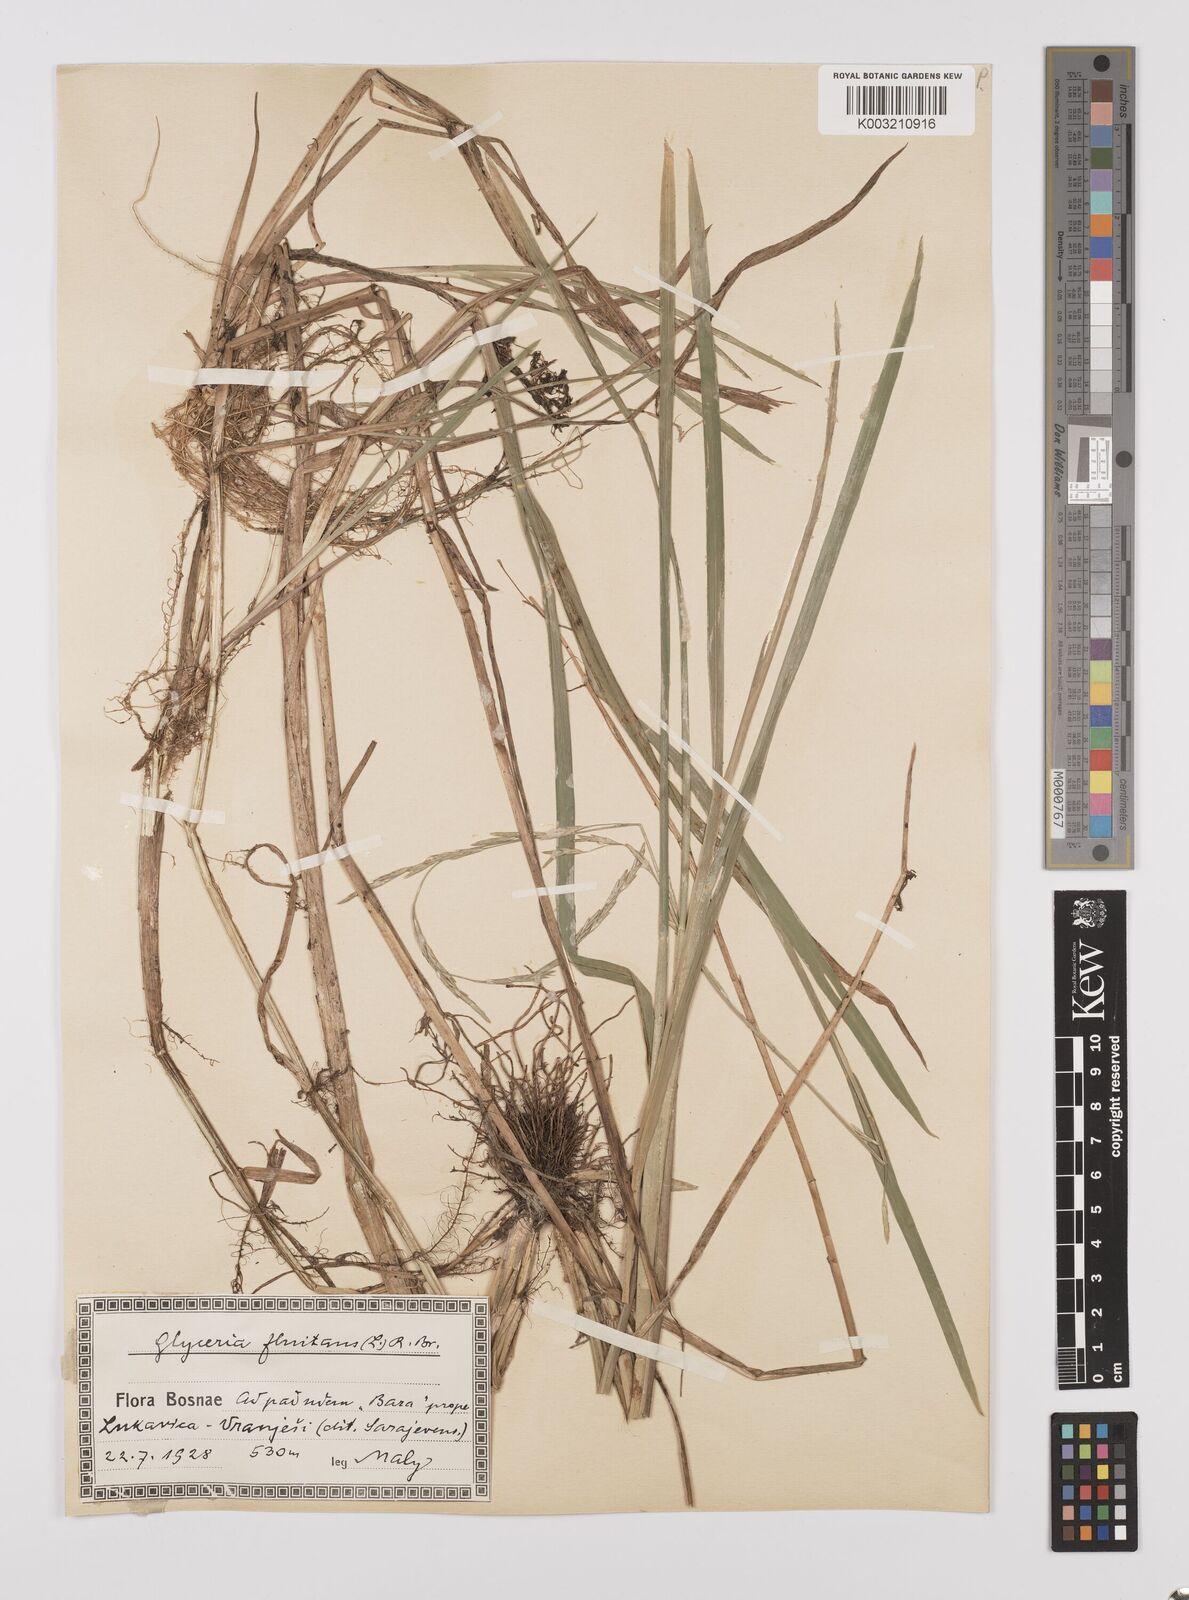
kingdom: Plantae
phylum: Tracheophyta
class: Liliopsida
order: Poales
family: Poaceae
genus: Glyceria
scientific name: Glyceria fluitans
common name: Floating sweet-grass
